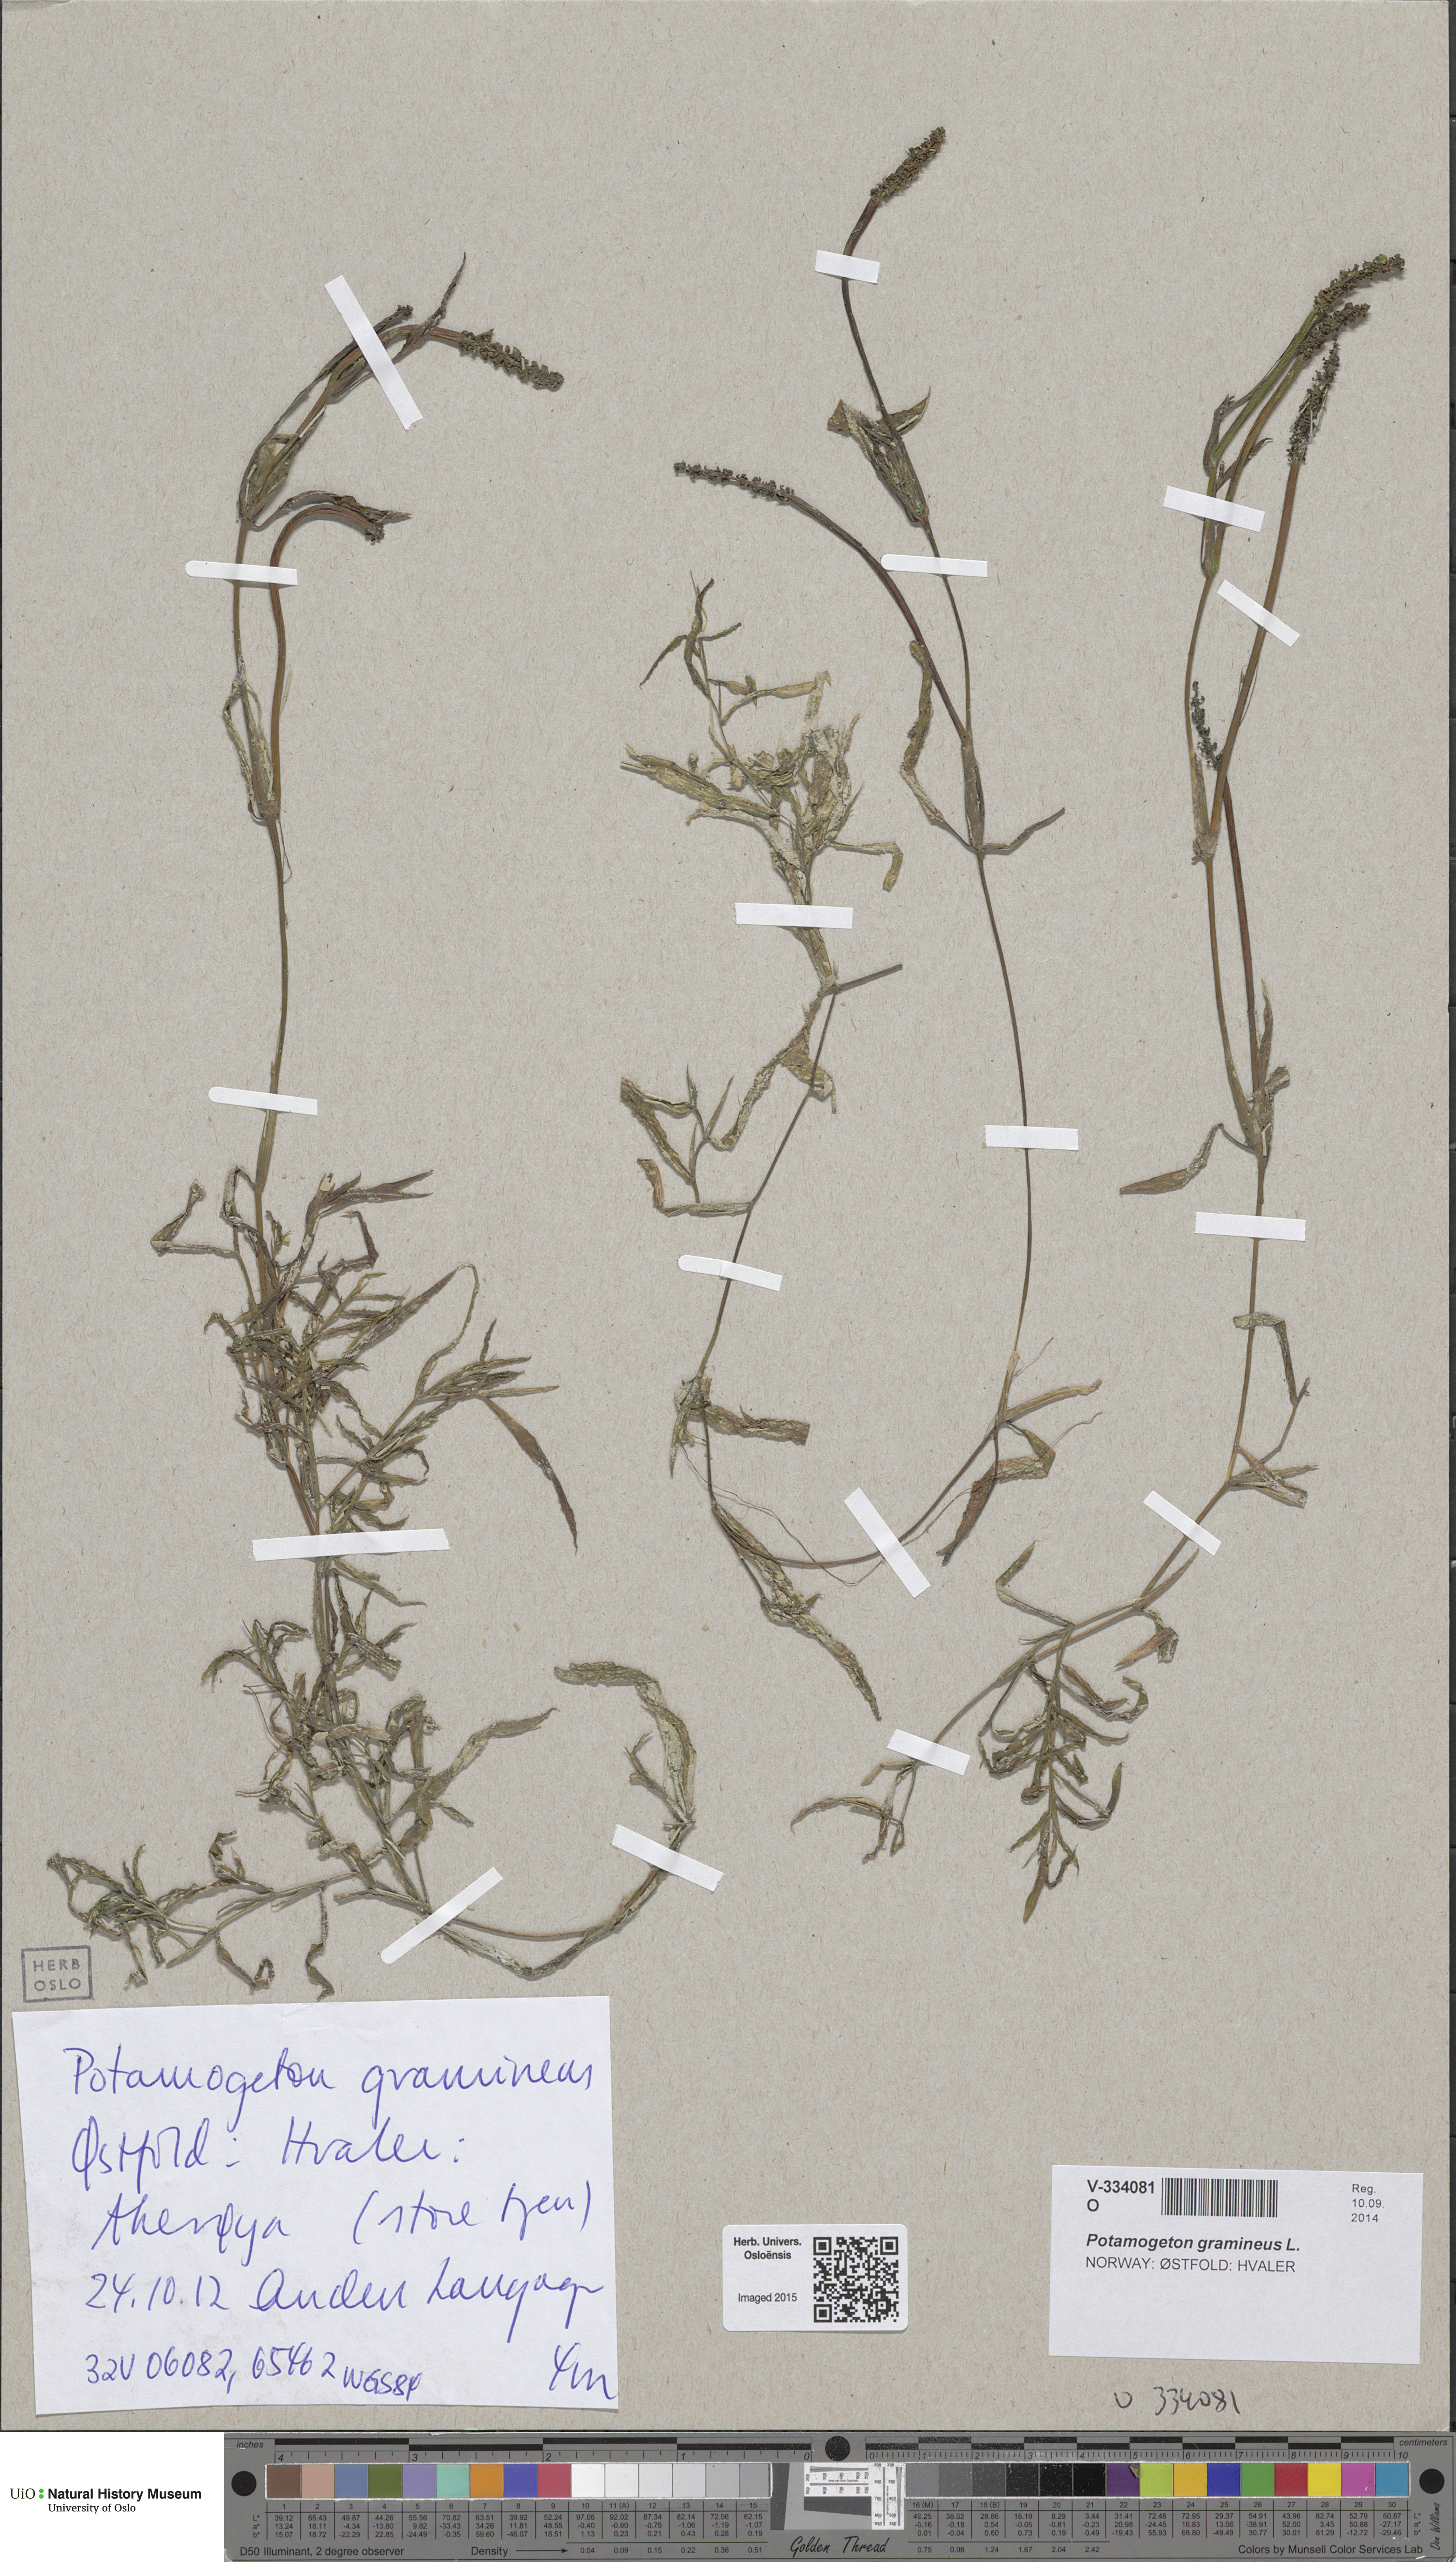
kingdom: Plantae
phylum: Tracheophyta
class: Liliopsida
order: Alismatales
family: Potamogetonaceae
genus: Potamogeton
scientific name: Potamogeton gramineus
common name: Various-leaved pondweed
